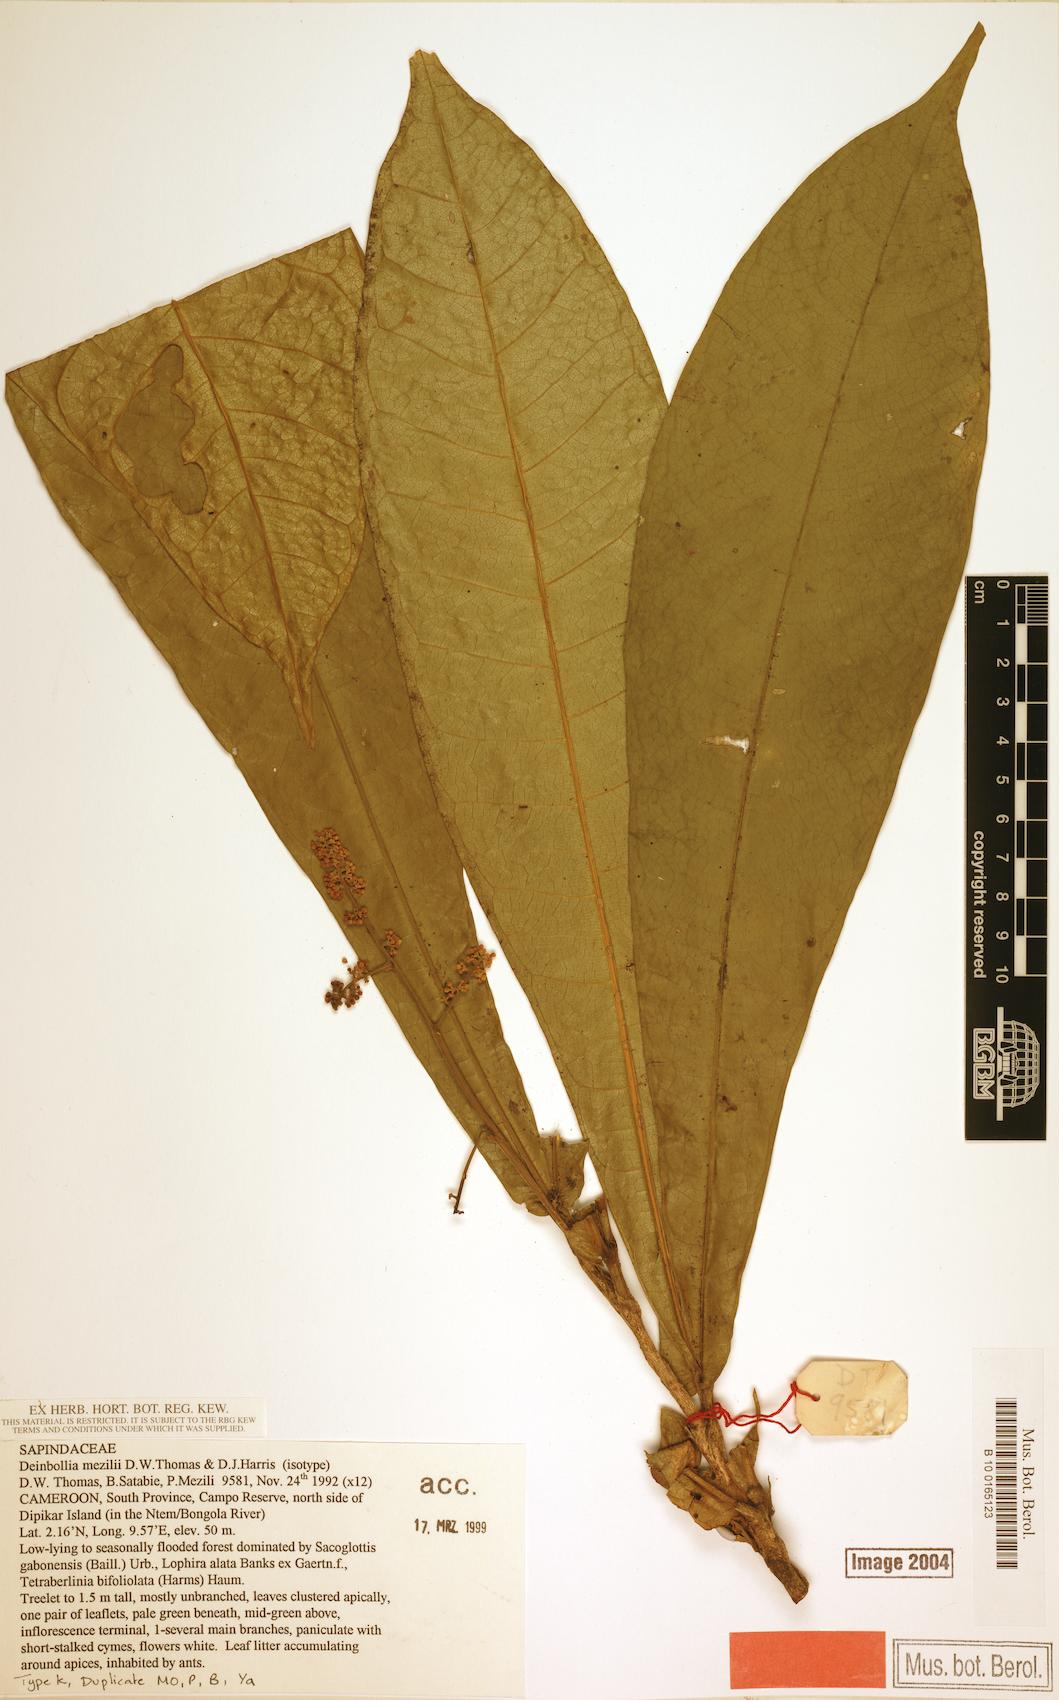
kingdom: Plantae
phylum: Tracheophyta
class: Magnoliopsida
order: Sapindales
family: Sapindaceae
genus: Deinbollia
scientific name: Deinbollia mezilii
